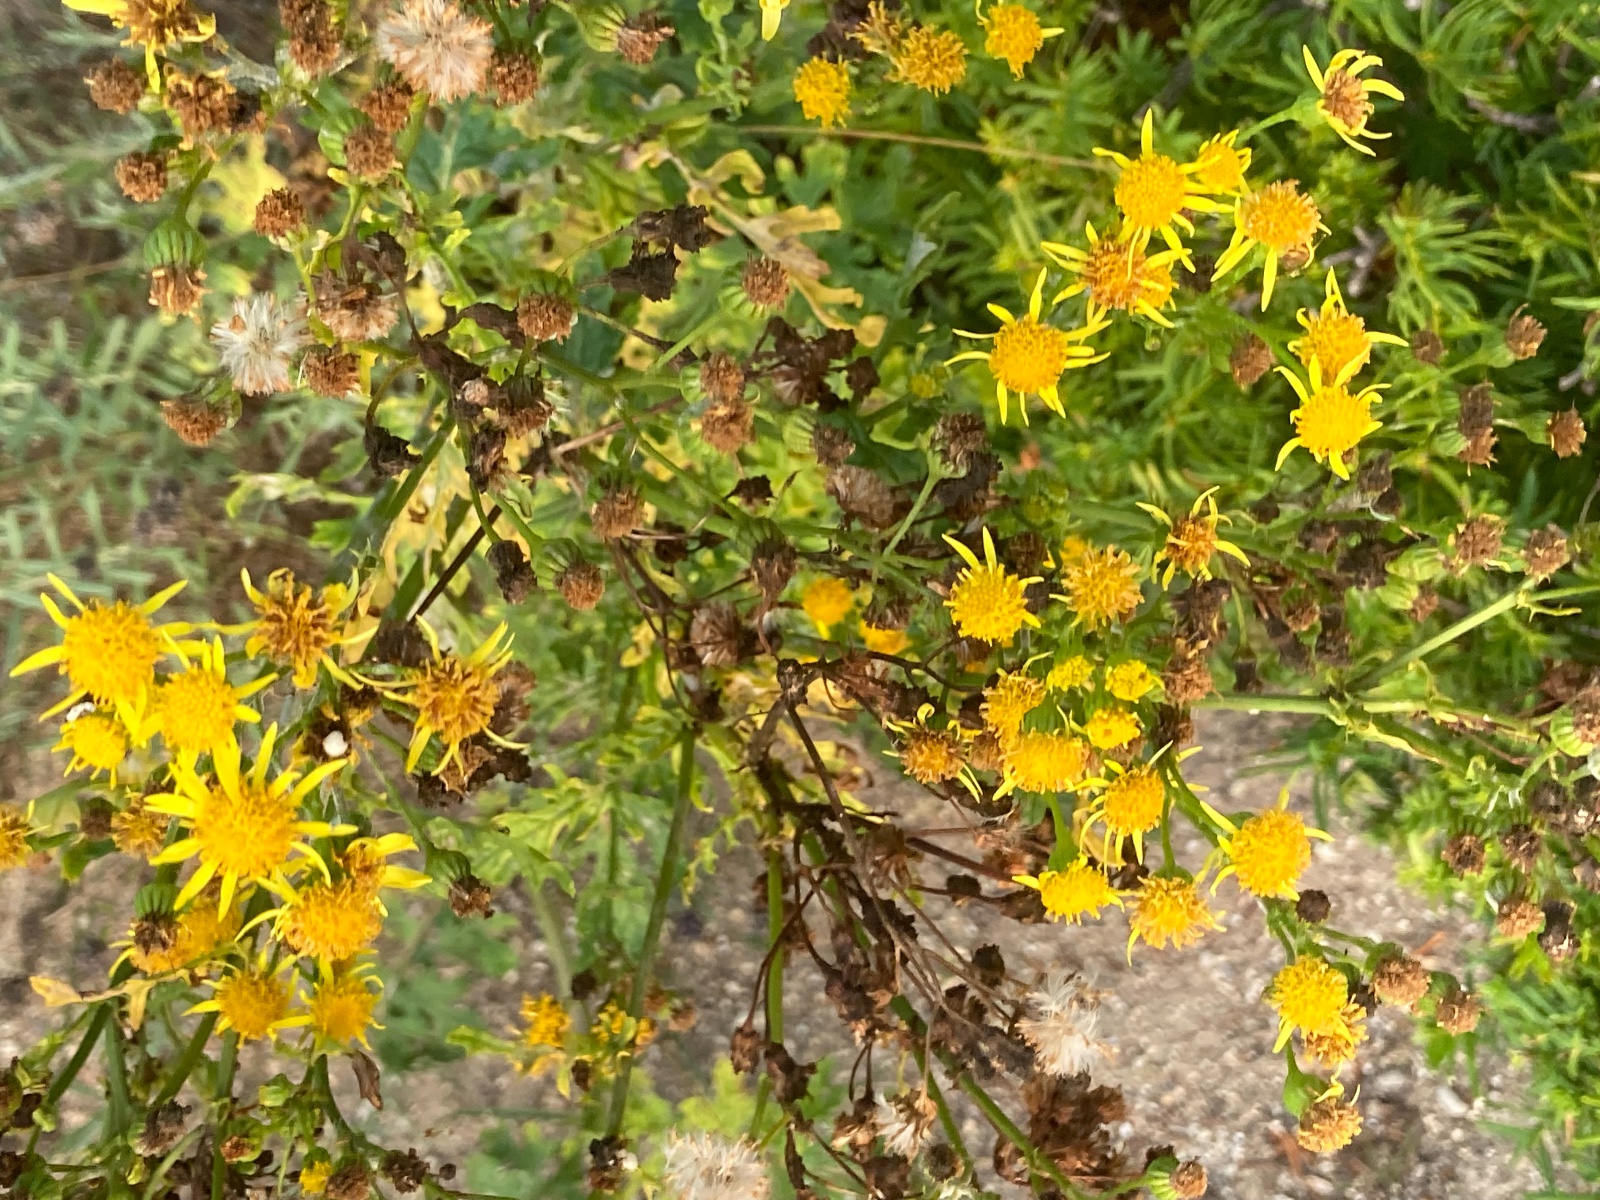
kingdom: Fungi
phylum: Ascomycota
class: Leotiomycetes
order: Helotiales
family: Erysiphaceae
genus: Podosphaera
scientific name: Podosphaera senecionis
